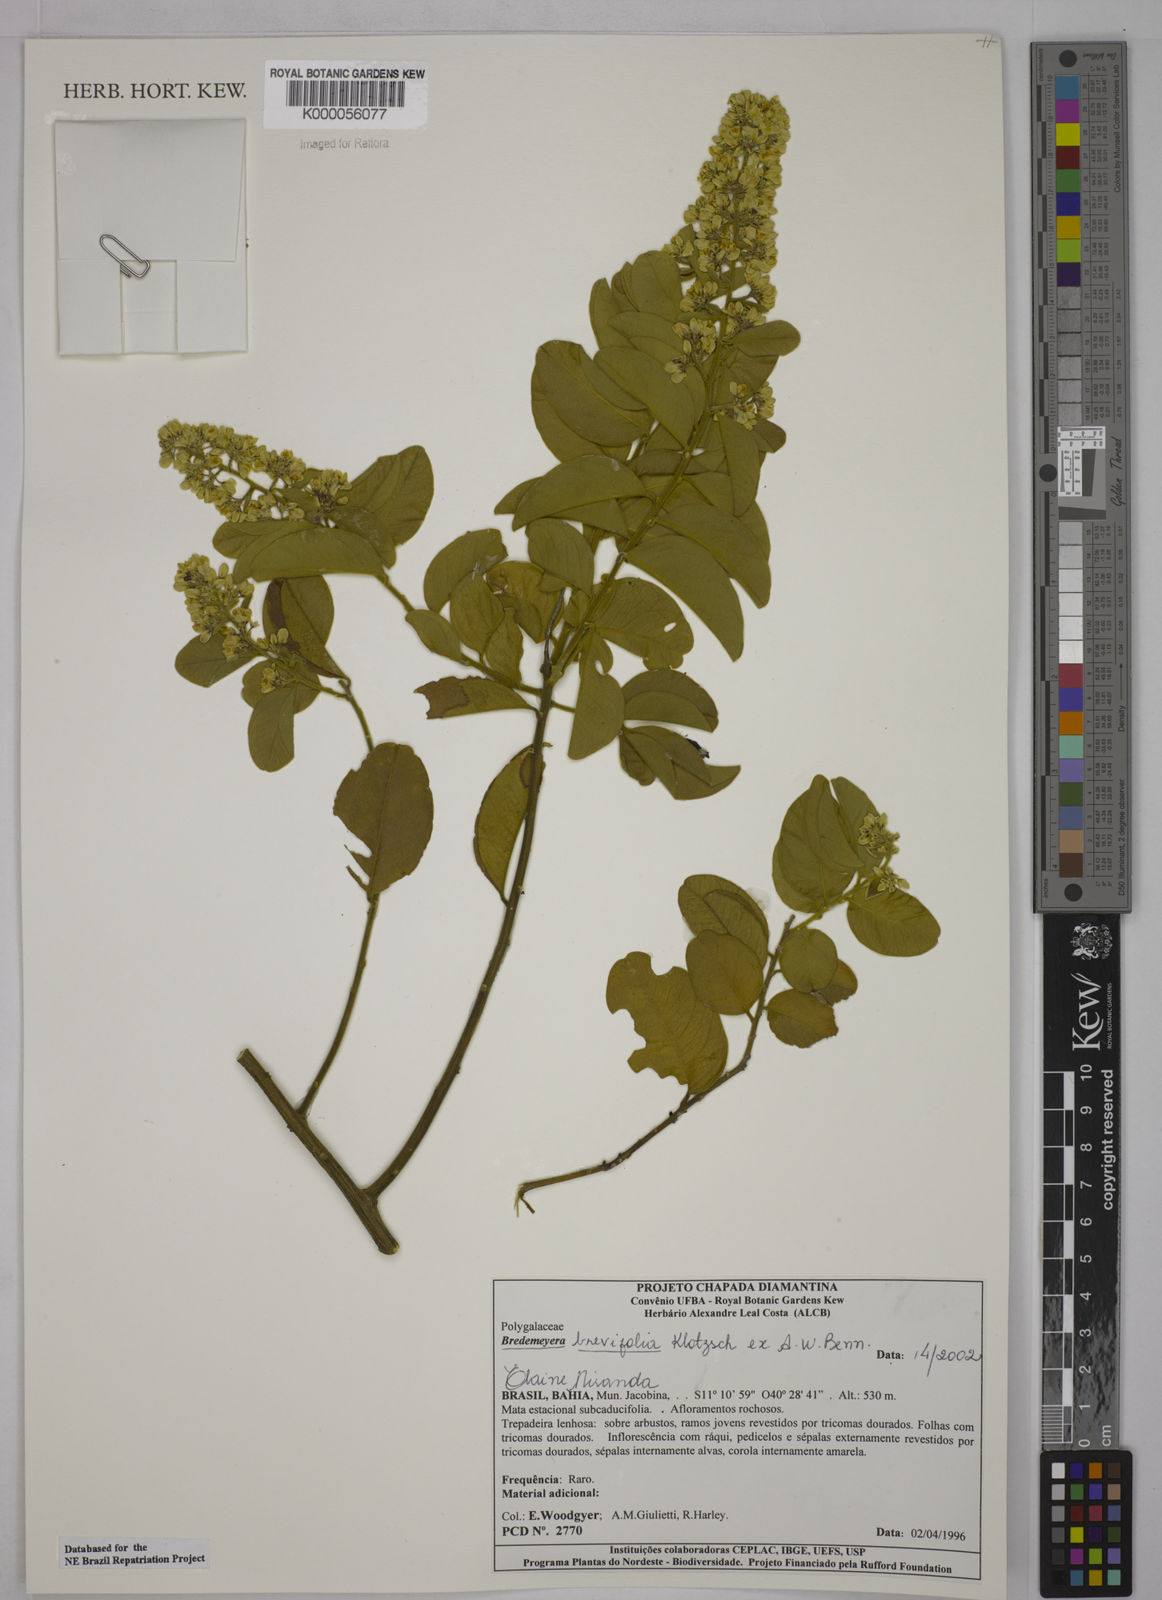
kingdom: Plantae
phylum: Tracheophyta
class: Magnoliopsida
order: Fabales
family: Polygalaceae
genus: Bredemeyera
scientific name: Bredemeyera brevifolia
